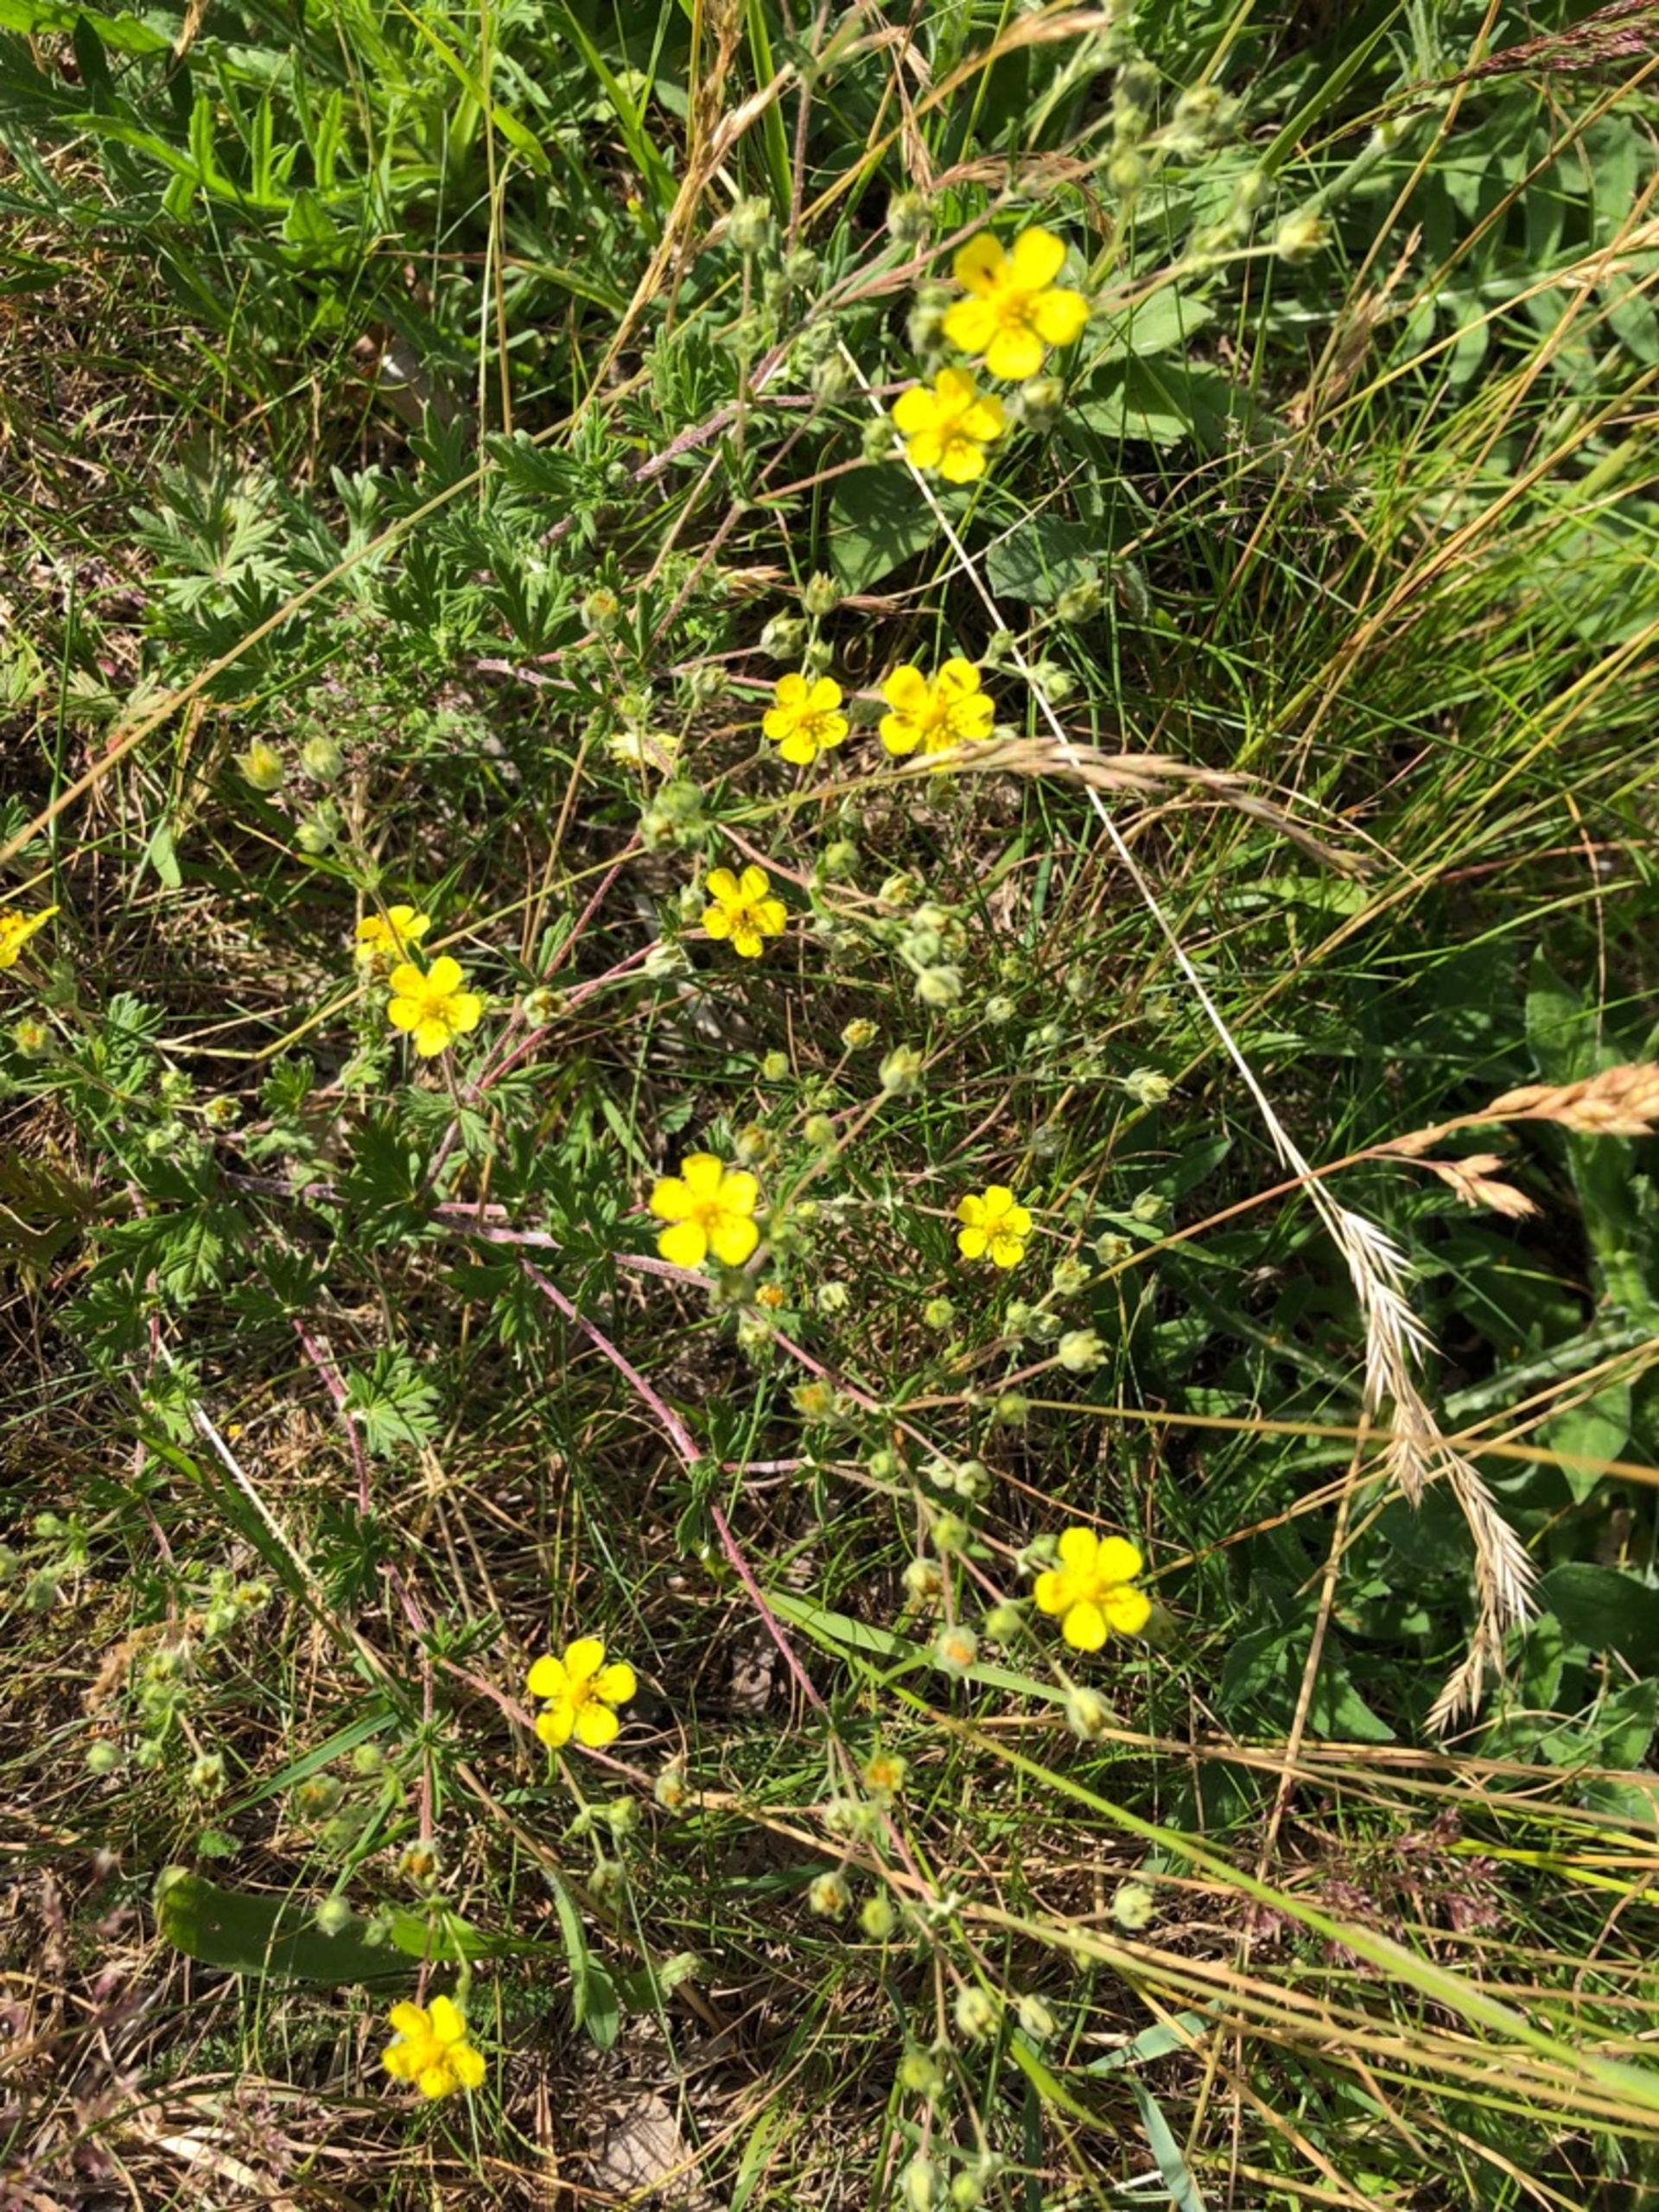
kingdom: Plantae
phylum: Tracheophyta
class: Magnoliopsida
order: Rosales
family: Rosaceae
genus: Potentilla
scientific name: Potentilla argentea
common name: Sølv-potentil
